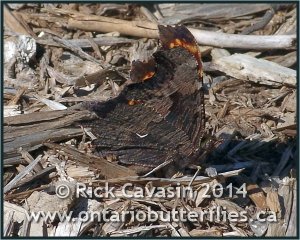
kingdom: Animalia
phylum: Arthropoda
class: Insecta
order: Lepidoptera
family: Nymphalidae
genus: Polygonia
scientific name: Polygonia progne
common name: Gray Comma
